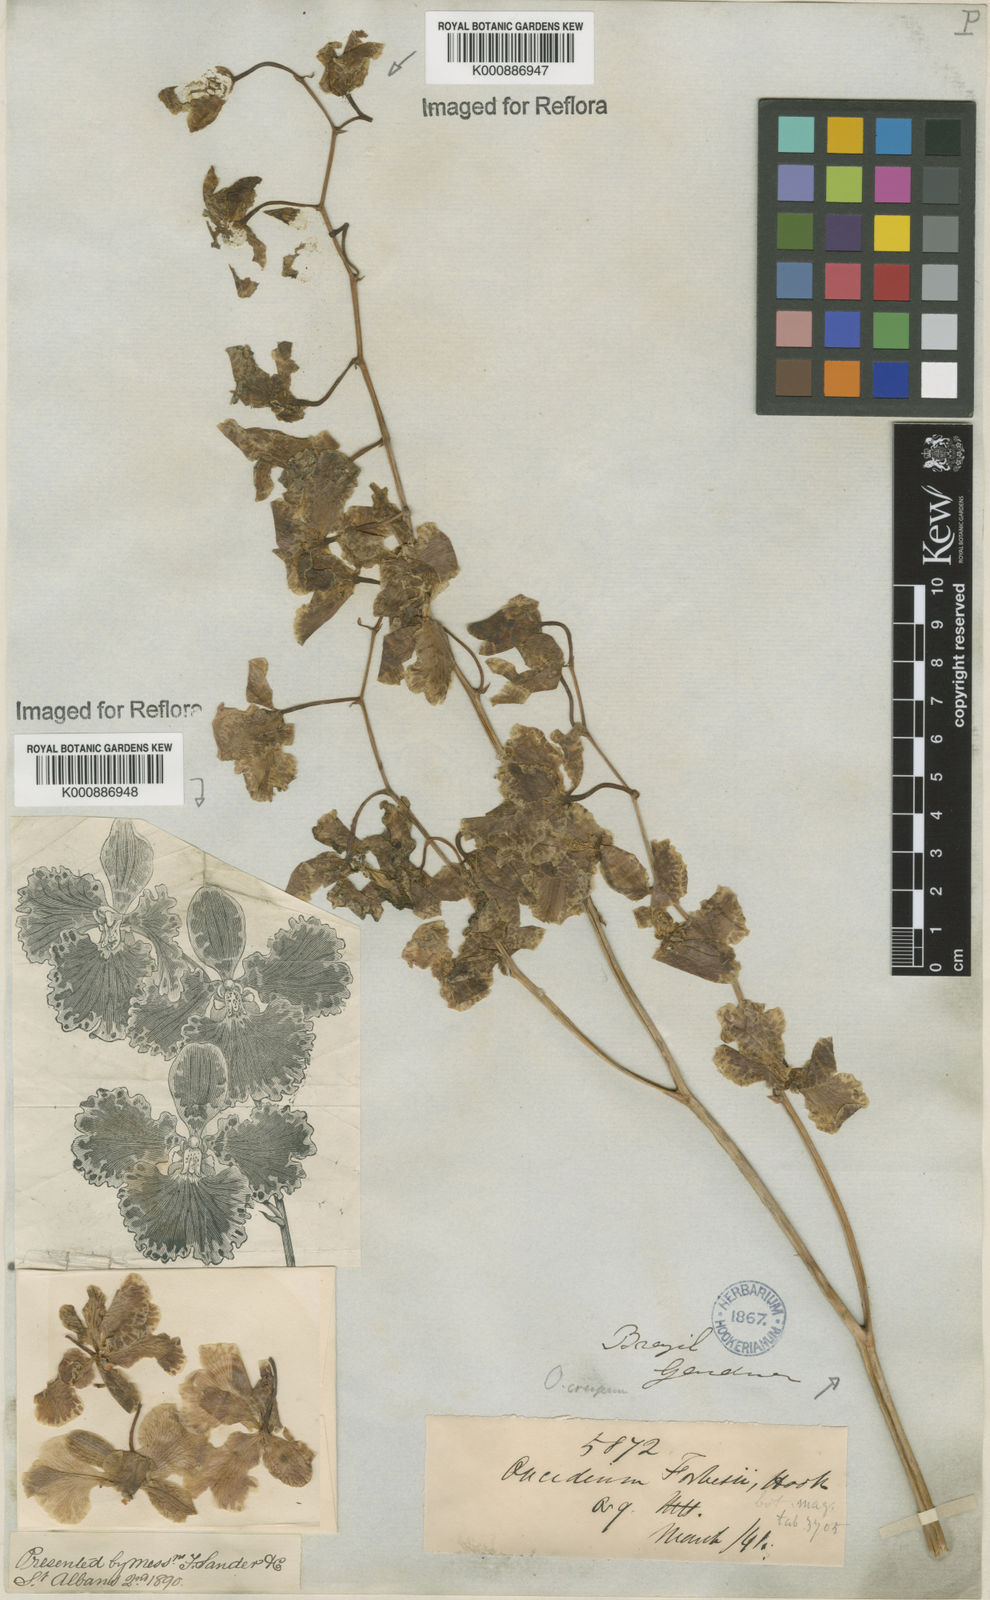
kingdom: Plantae
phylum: Tracheophyta
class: Liliopsida
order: Asparagales
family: Orchidaceae
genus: Gomesa
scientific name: Gomesa forbesii
